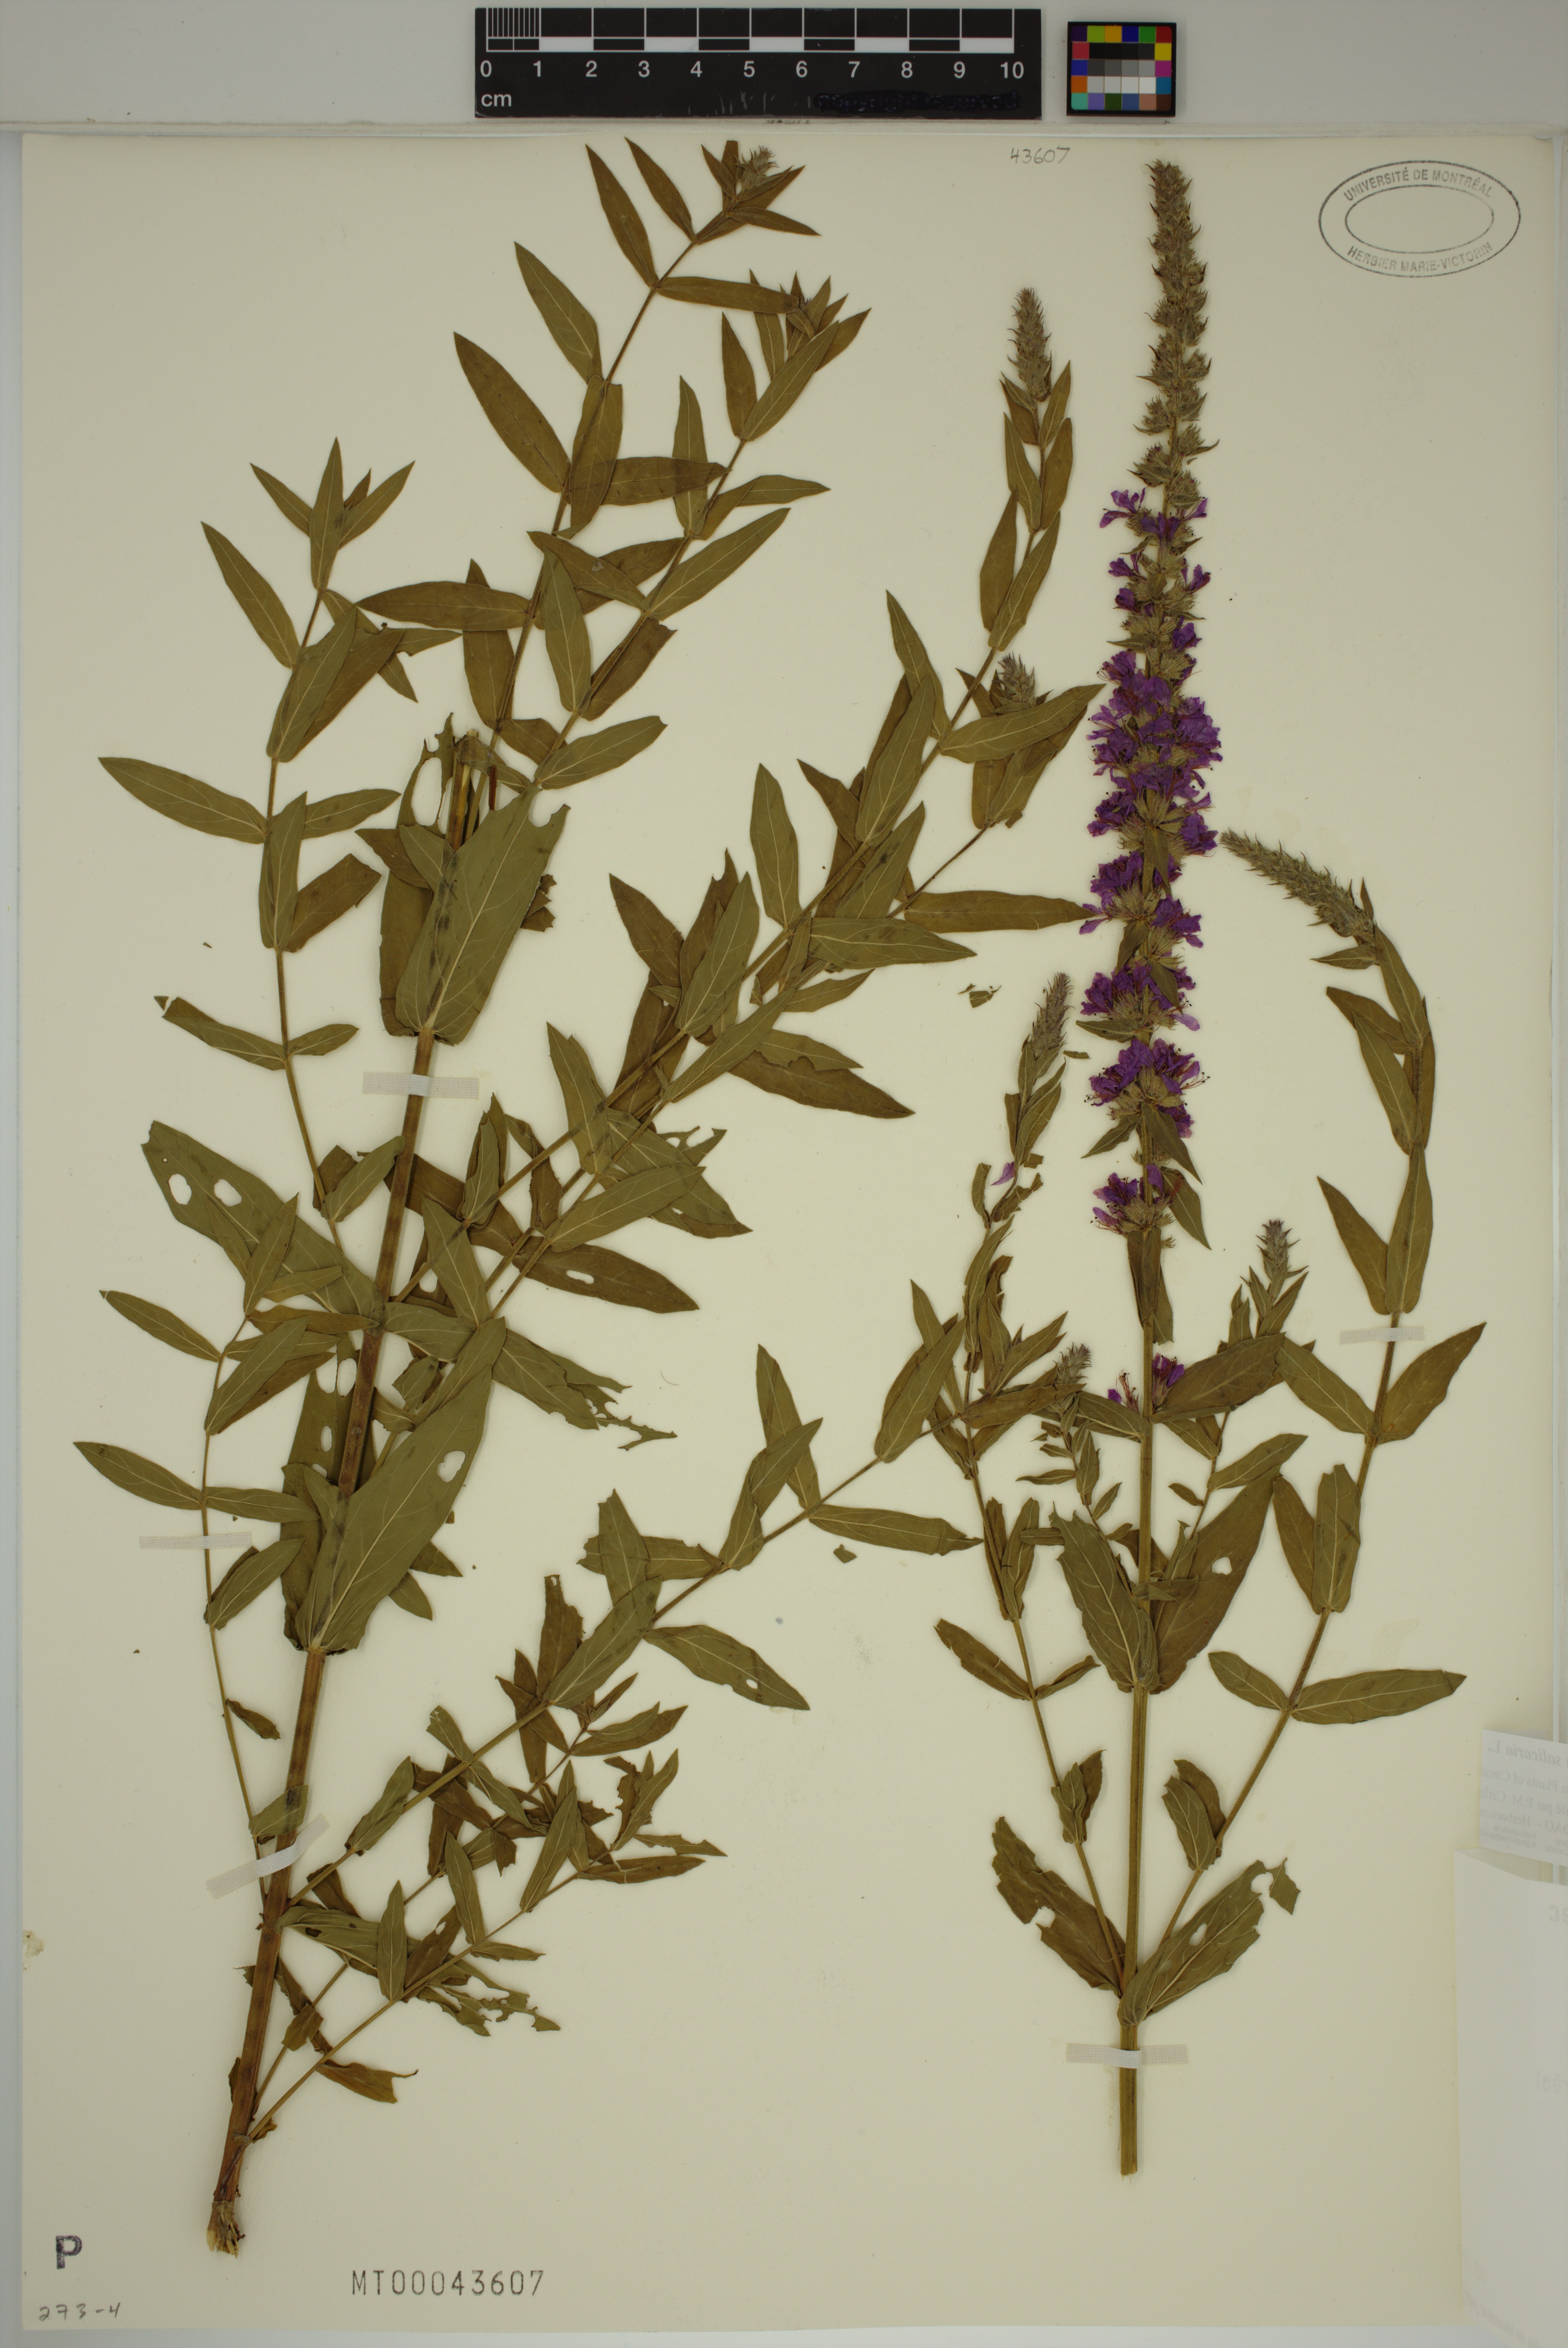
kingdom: Plantae
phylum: Tracheophyta
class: Magnoliopsida
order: Myrtales
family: Lythraceae
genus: Lythrum
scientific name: Lythrum salicaria
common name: Purple loosestrife
